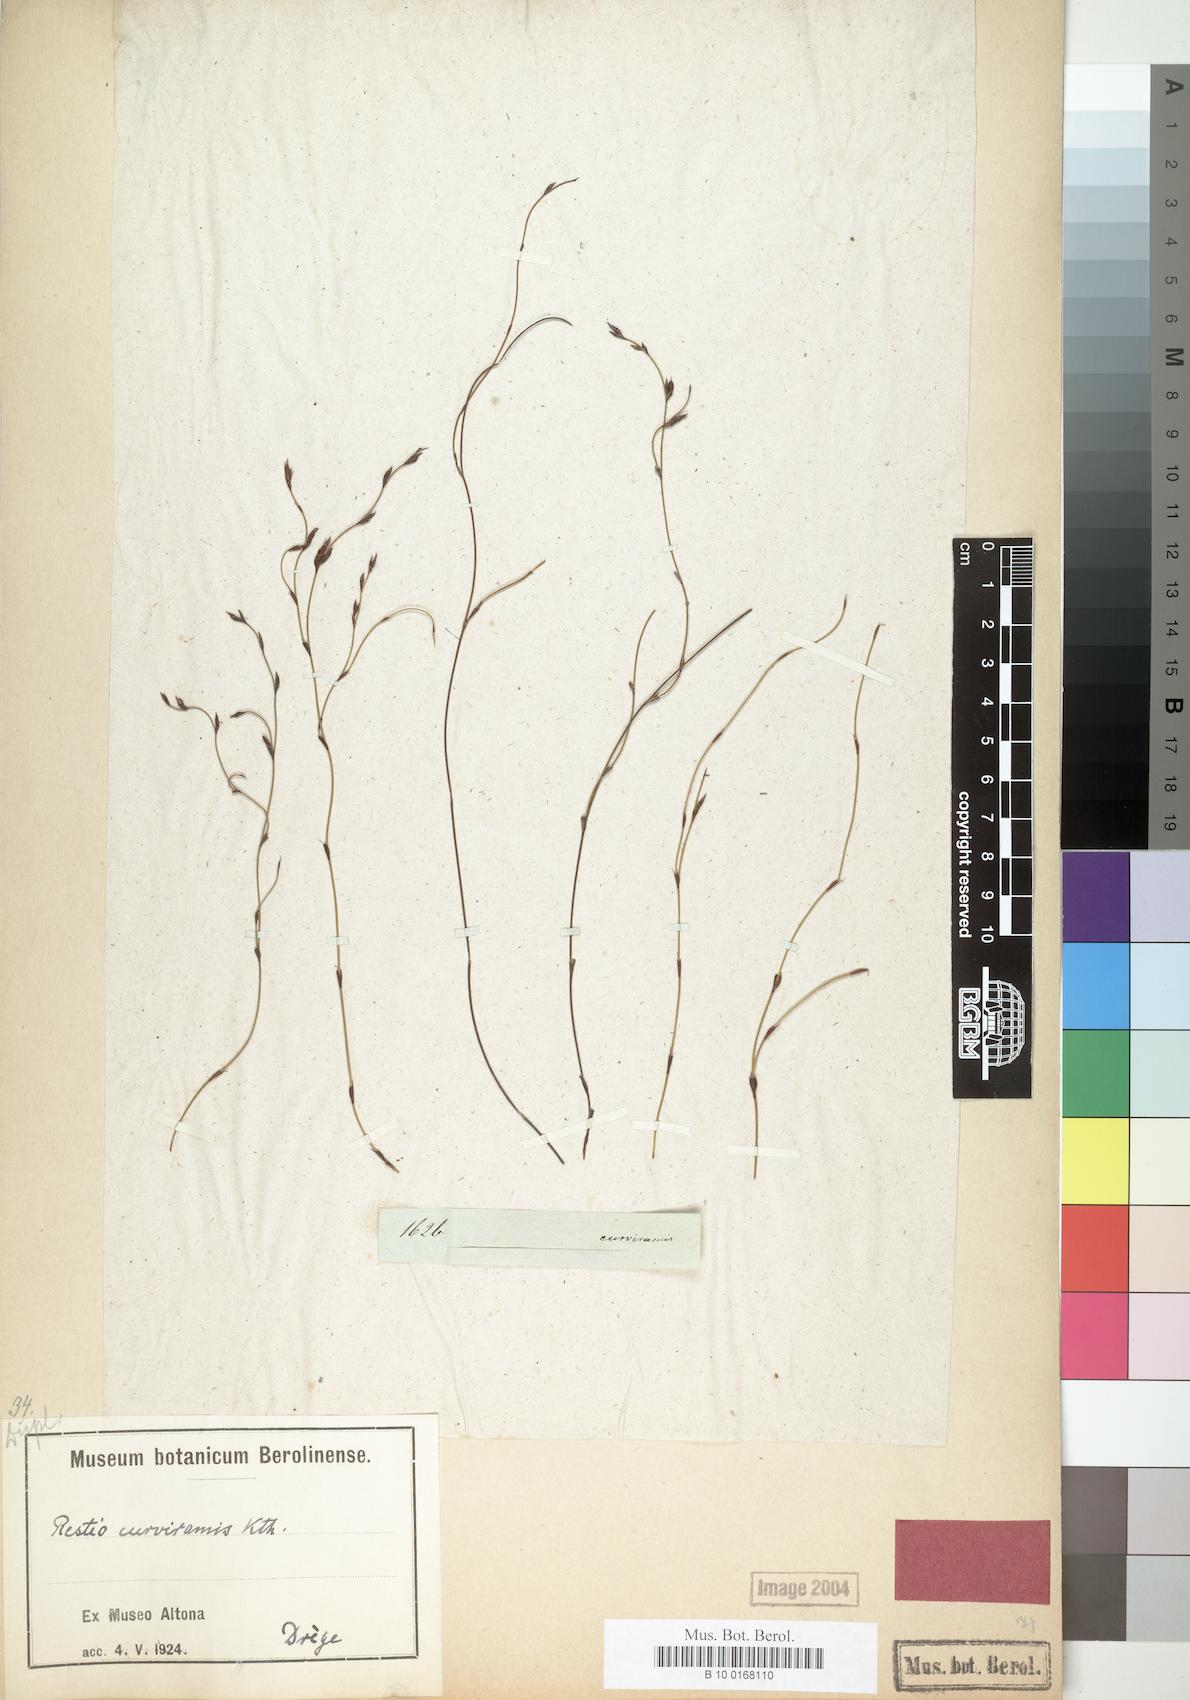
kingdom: Plantae
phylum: Tracheophyta
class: Liliopsida
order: Poales
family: Restionaceae
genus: Restio
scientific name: Restio curviramis
